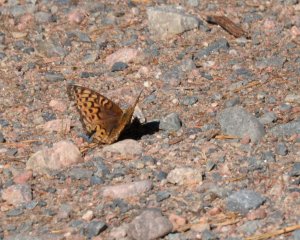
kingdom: Animalia
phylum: Arthropoda
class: Insecta
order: Lepidoptera
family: Nymphalidae
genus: Speyeria
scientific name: Speyeria atlantis
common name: Atlantis Fritillary
